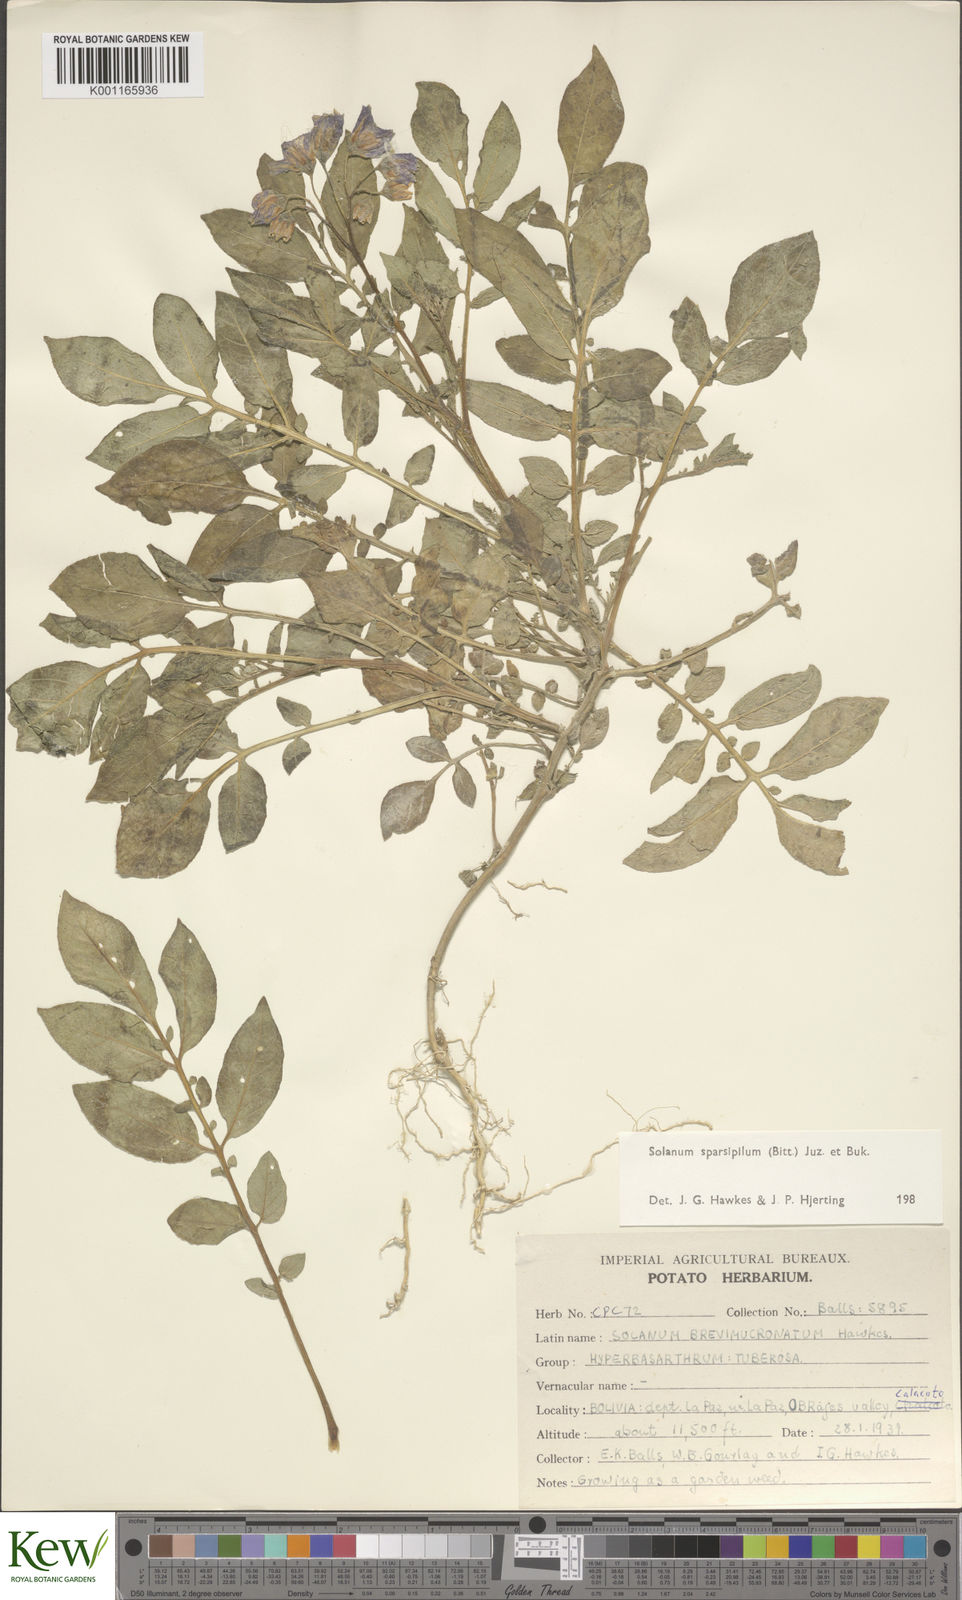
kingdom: Plantae
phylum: Tracheophyta
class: Magnoliopsida
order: Solanales
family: Solanaceae
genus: Solanum
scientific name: Solanum brevicaule
